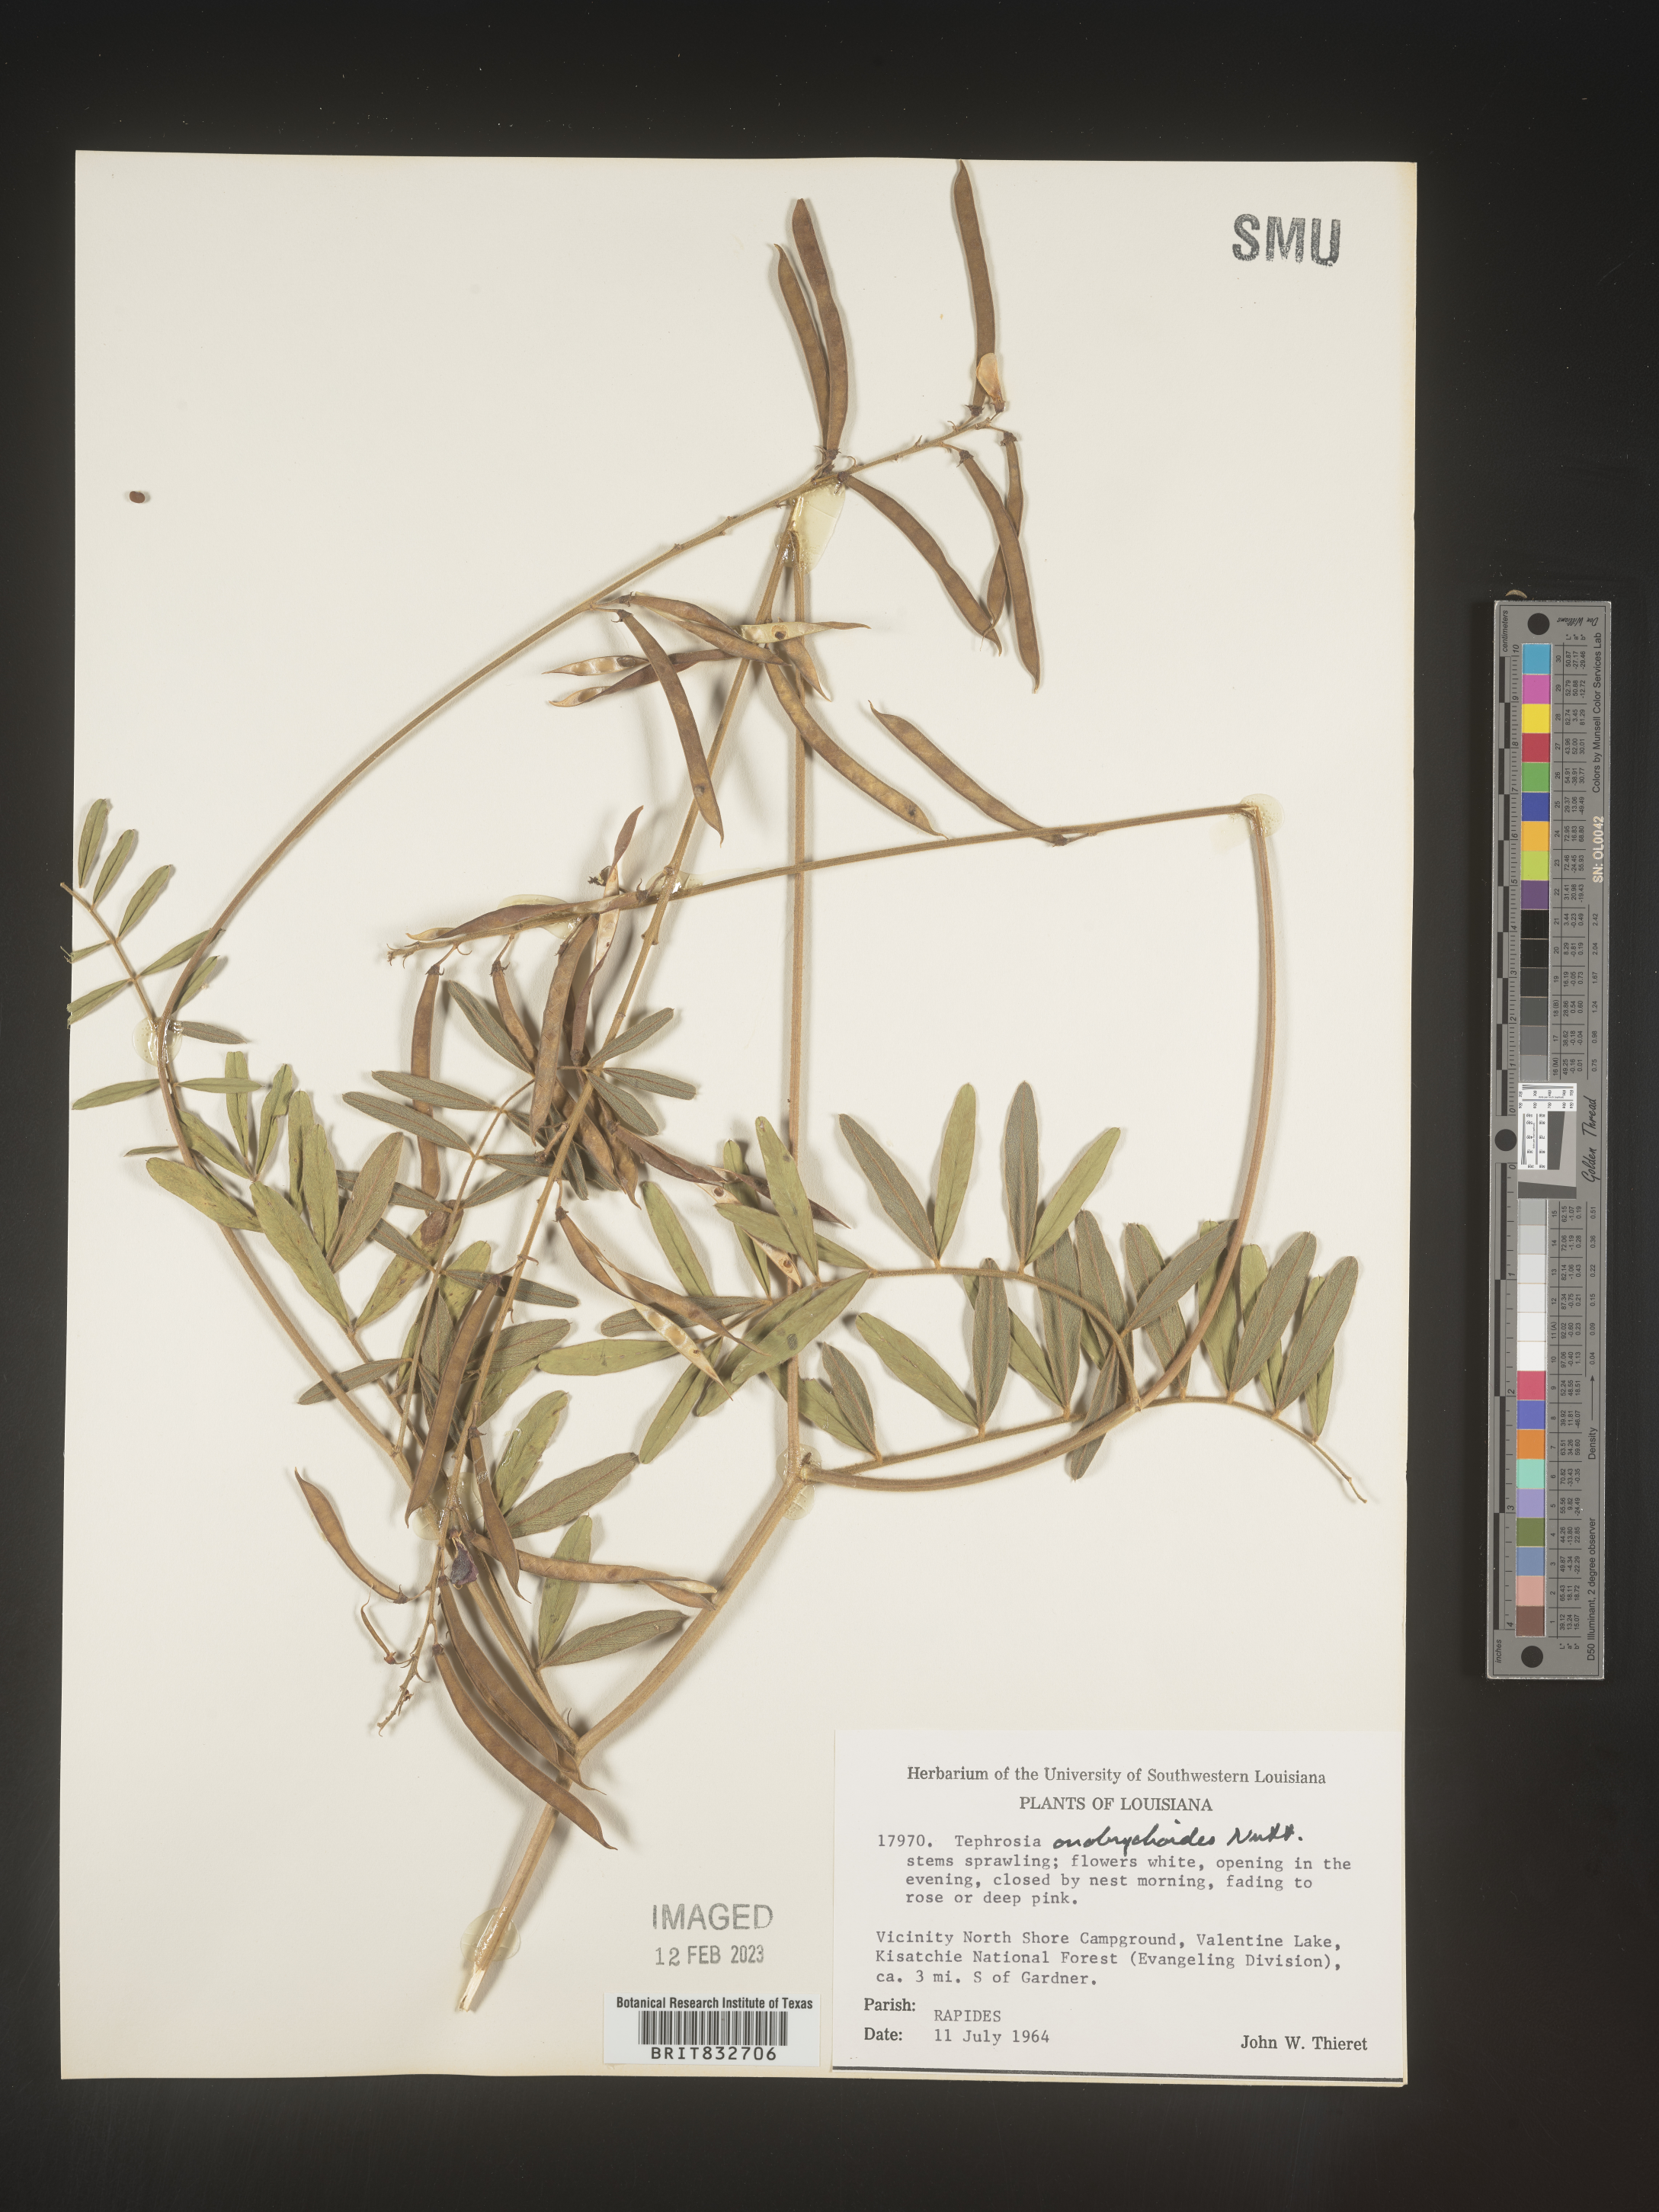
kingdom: Plantae
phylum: Tracheophyta
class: Magnoliopsida
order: Fabales
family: Fabaceae
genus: Tephrosia
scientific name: Tephrosia onobrychoides
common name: Multi-bloom hoary-pea
